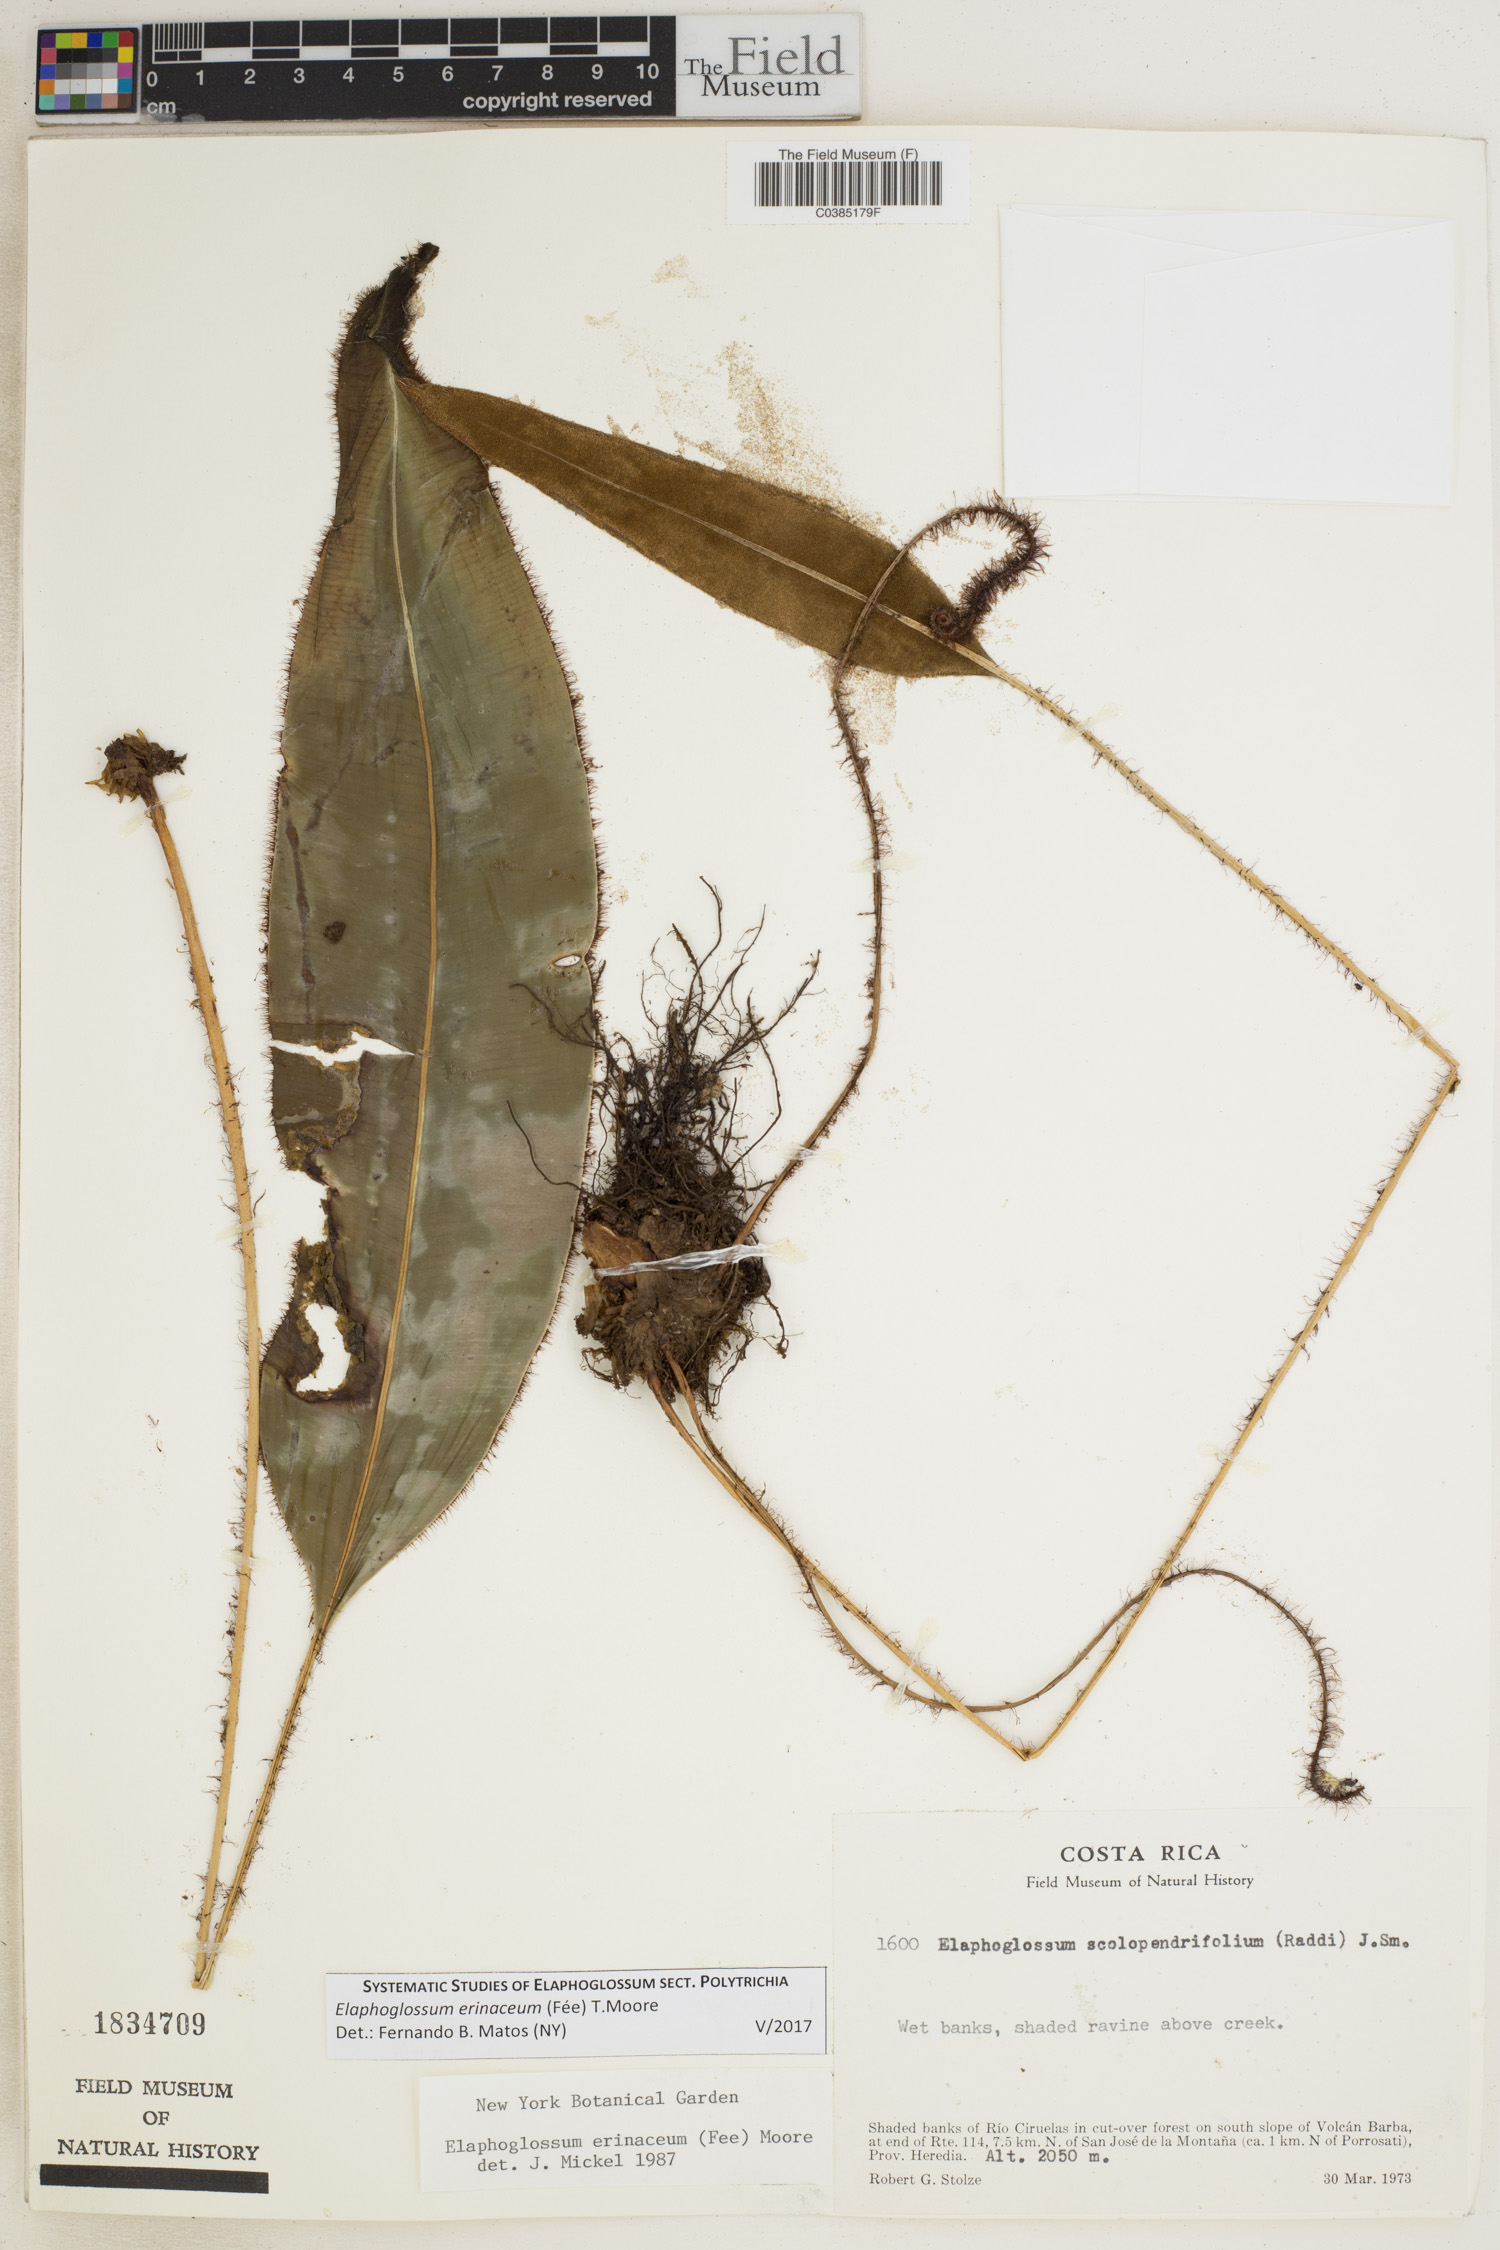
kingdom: Plantae
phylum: Tracheophyta
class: Polypodiopsida
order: Polypodiales
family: Dryopteridaceae
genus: Elaphoglossum
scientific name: Elaphoglossum erinaceum
